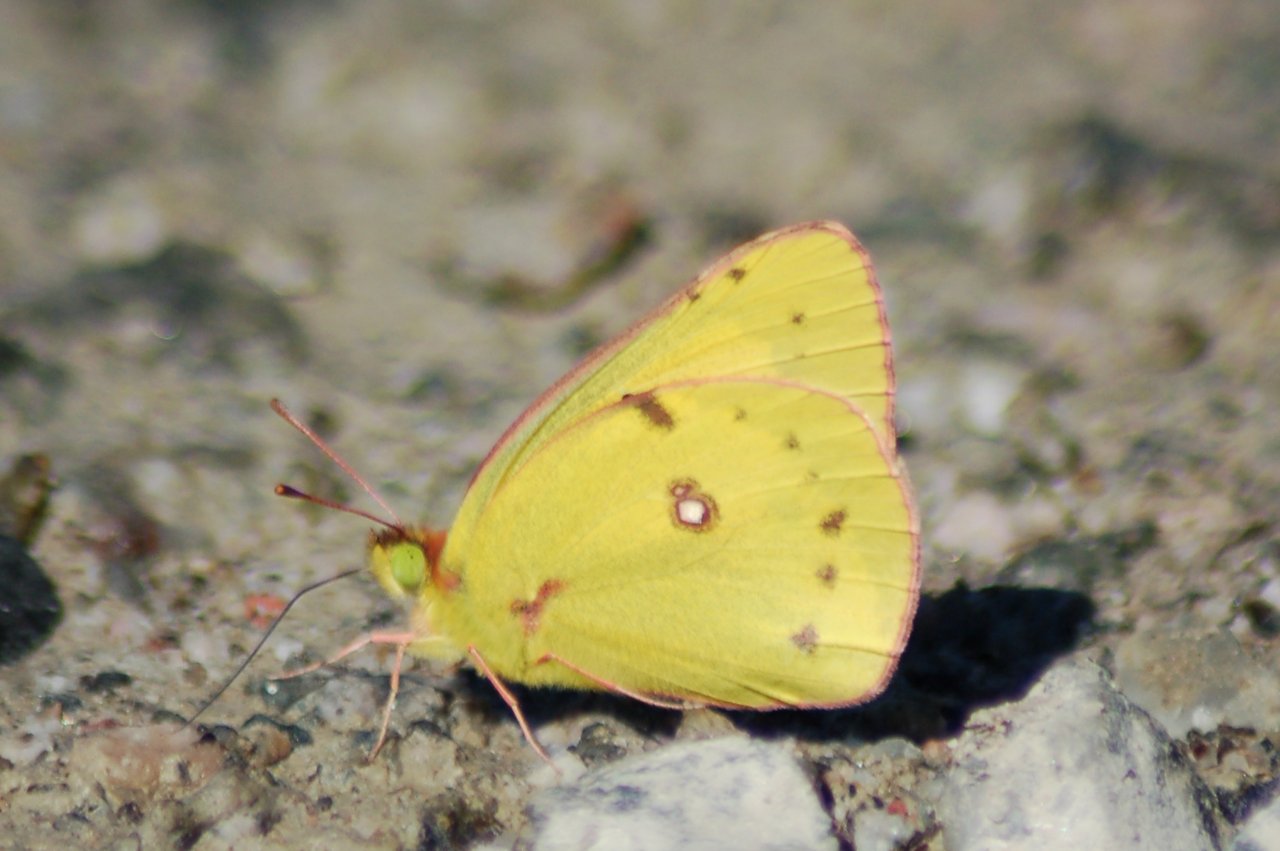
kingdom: Animalia
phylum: Arthropoda
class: Insecta
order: Lepidoptera
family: Pieridae
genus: Colias
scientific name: Colias philodice
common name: Clouded Sulphur
